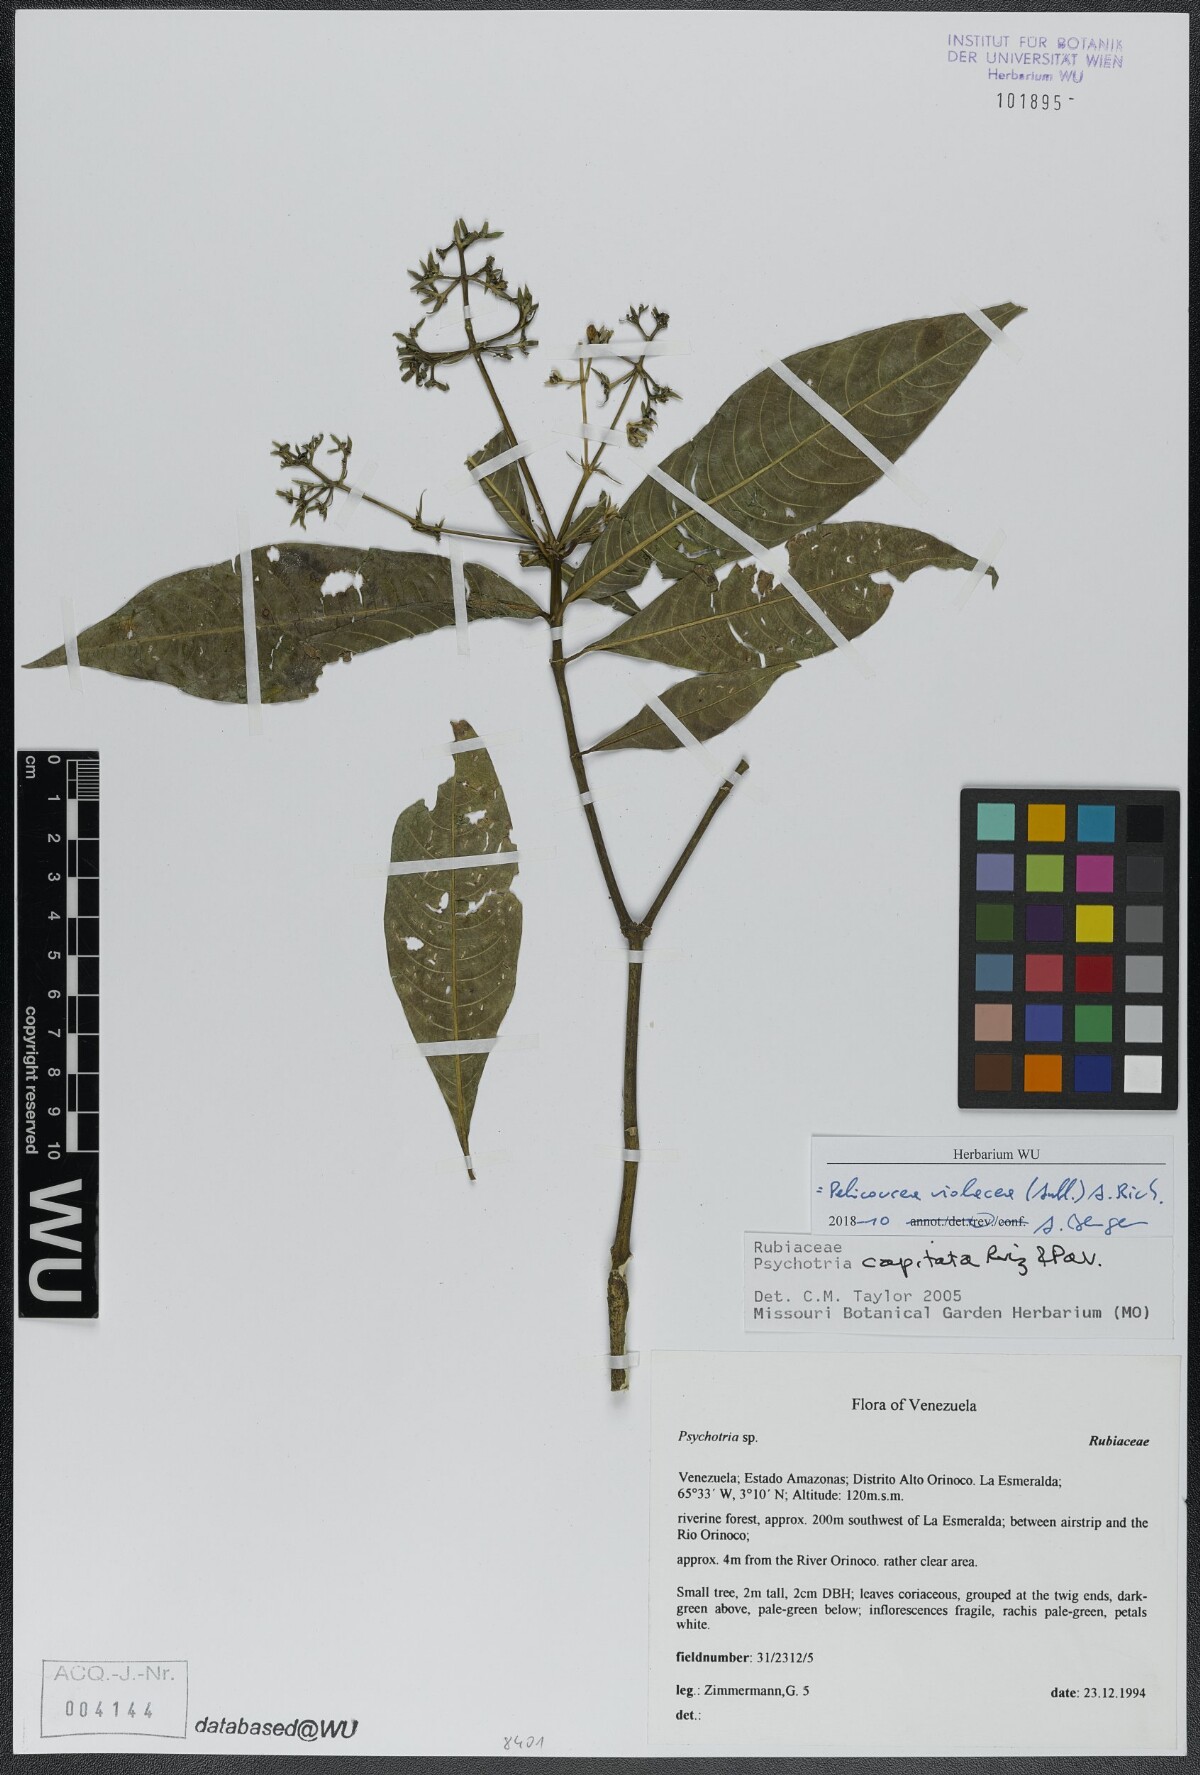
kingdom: Plantae
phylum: Tracheophyta
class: Magnoliopsida
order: Gentianales
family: Rubiaceae
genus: Palicourea
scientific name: Palicourea violacea
